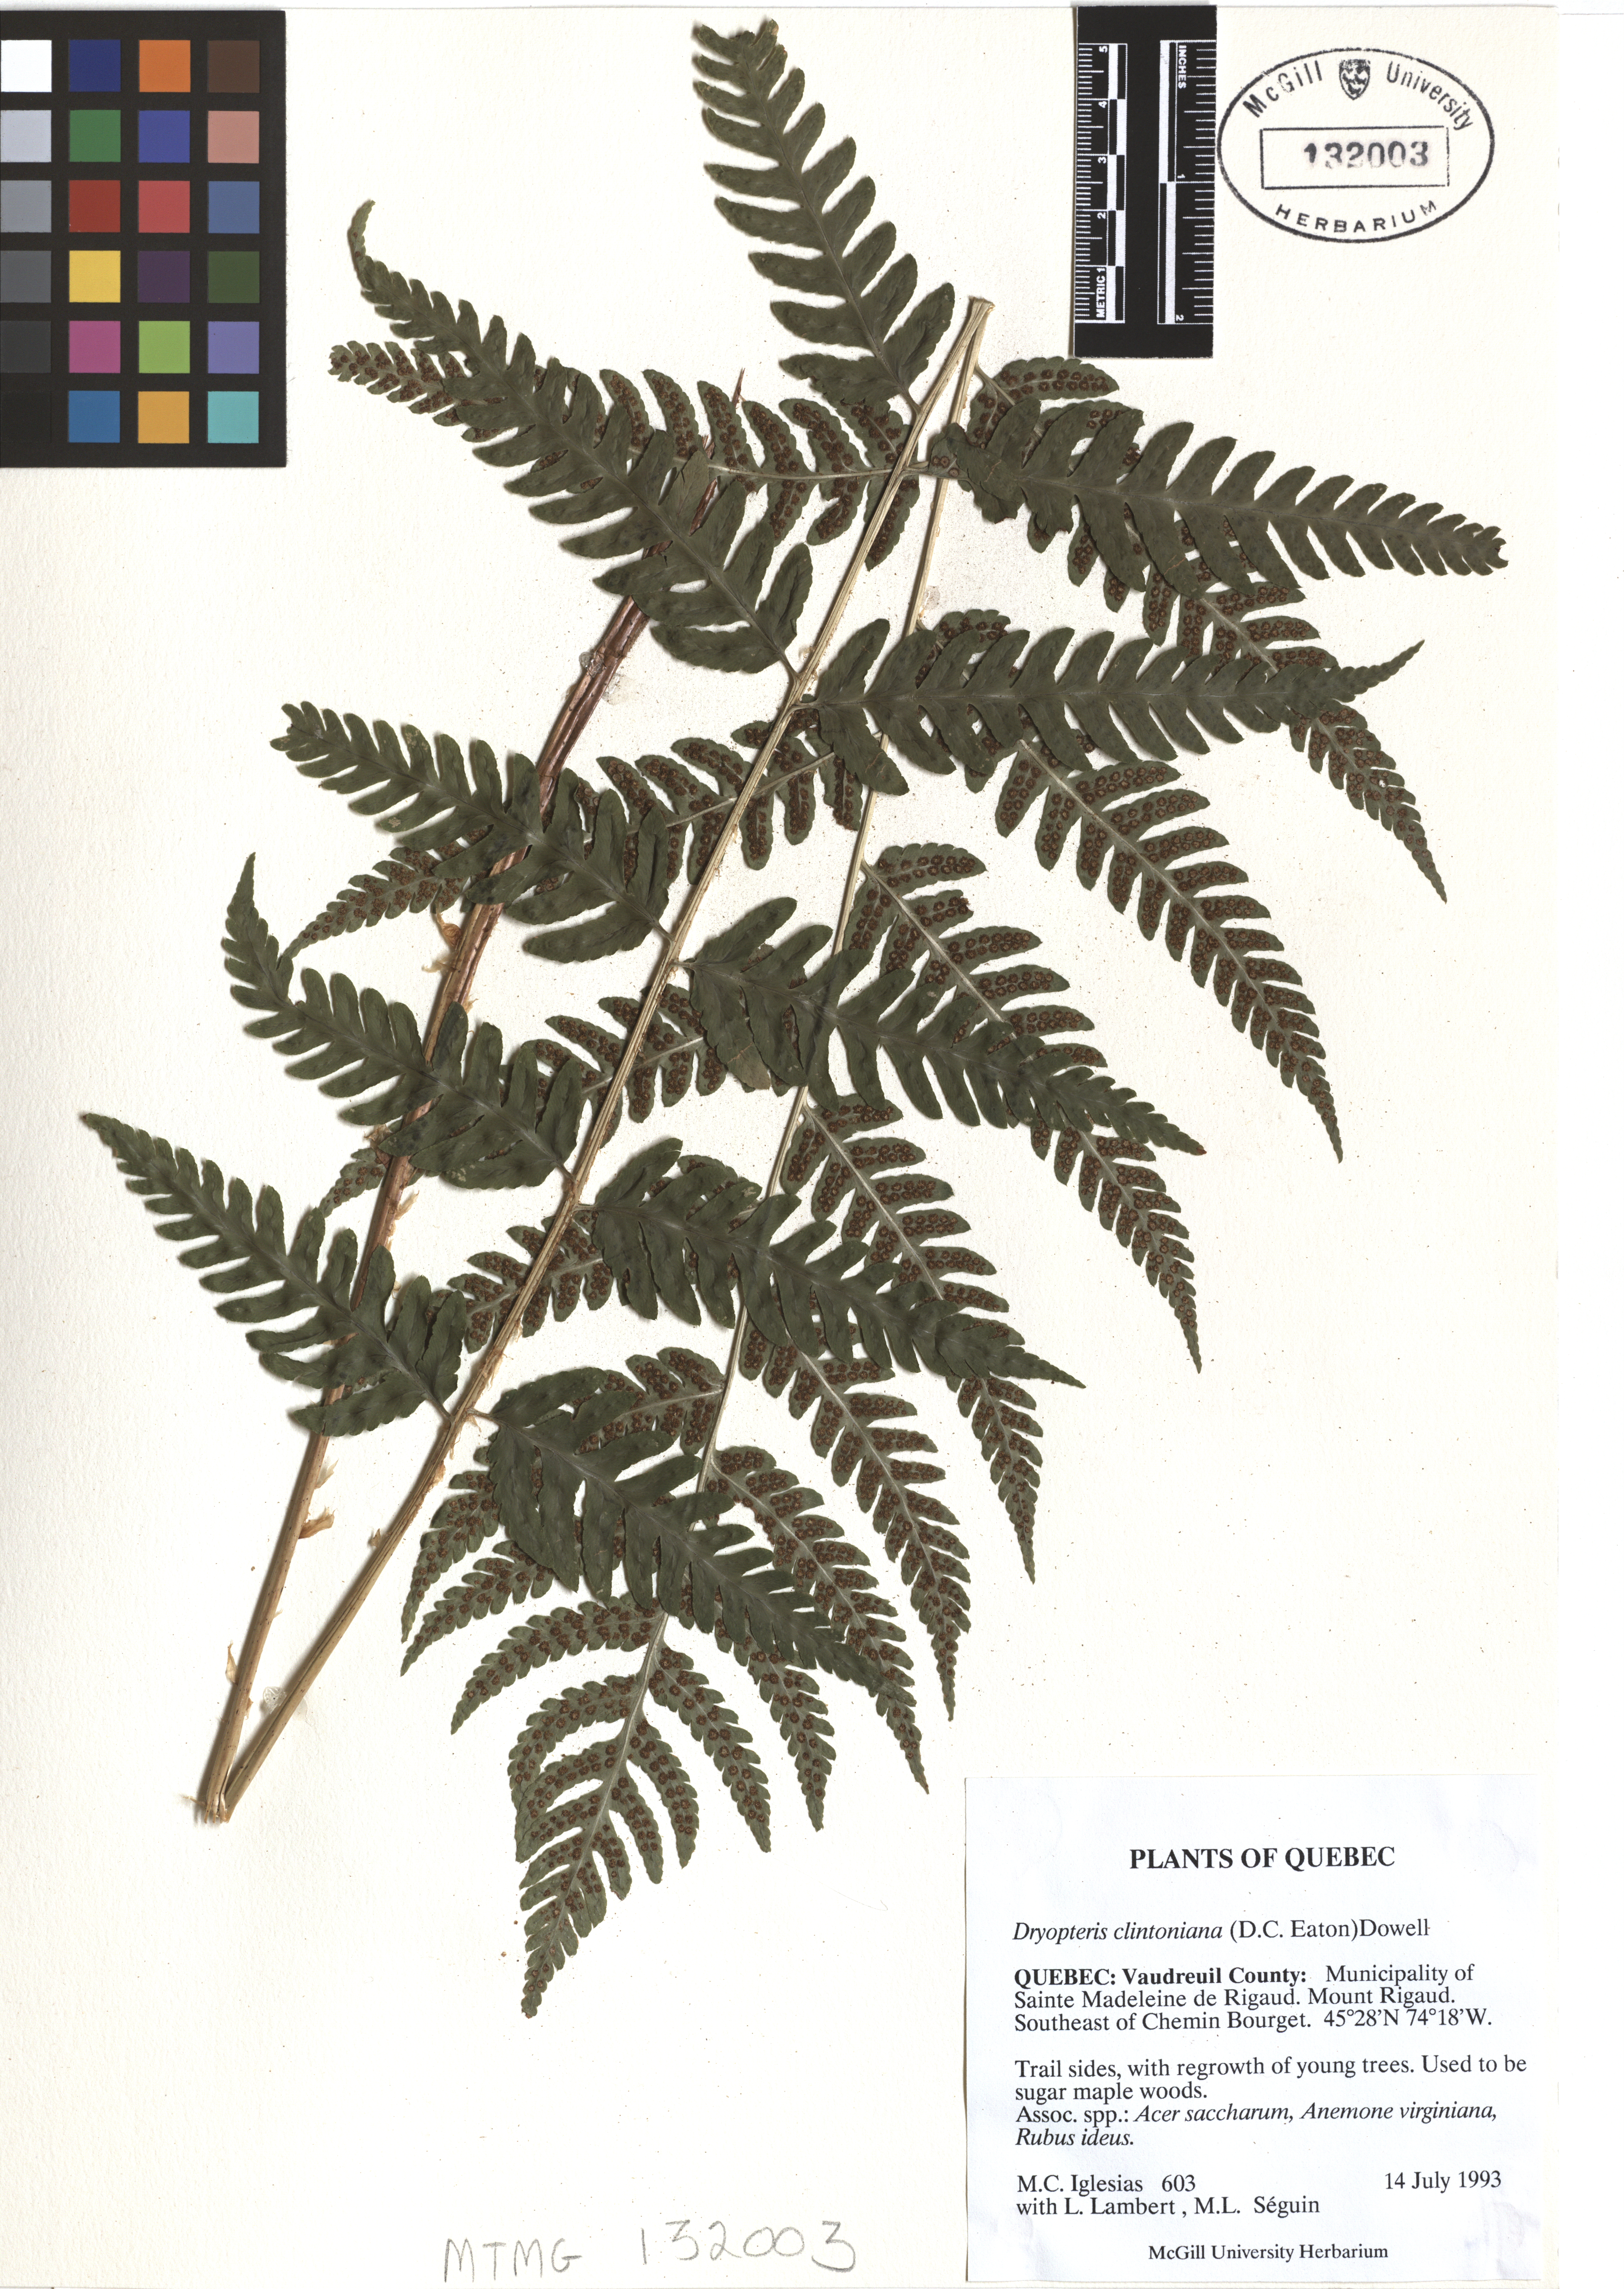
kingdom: Plantae
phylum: Tracheophyta
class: Polypodiopsida
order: Polypodiales
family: Dryopteridaceae
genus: Dryopteris
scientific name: Dryopteris clintoniana
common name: Clinton's wood fern
